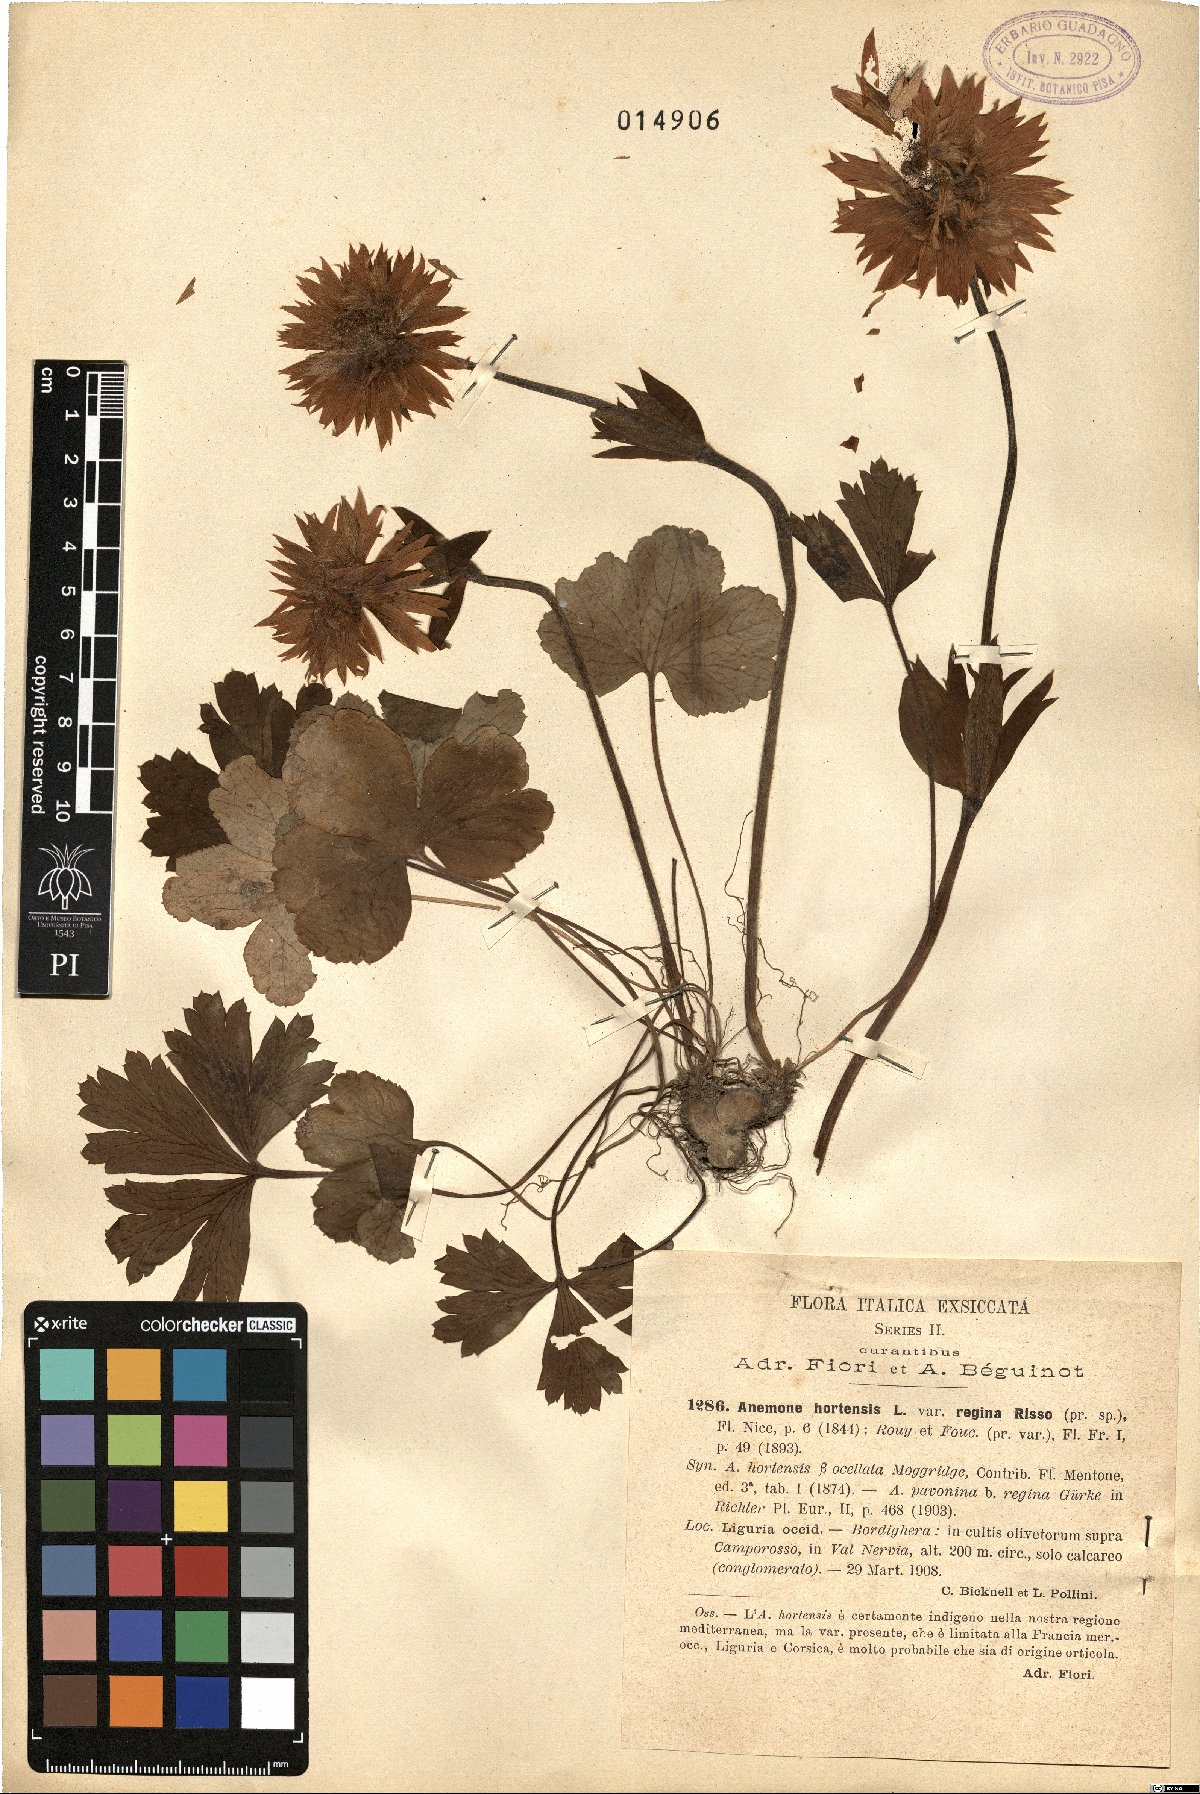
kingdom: Plantae
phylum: Tracheophyta
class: Magnoliopsida
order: Ranunculales
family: Ranunculaceae
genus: Anemone
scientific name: Anemone hortensis
